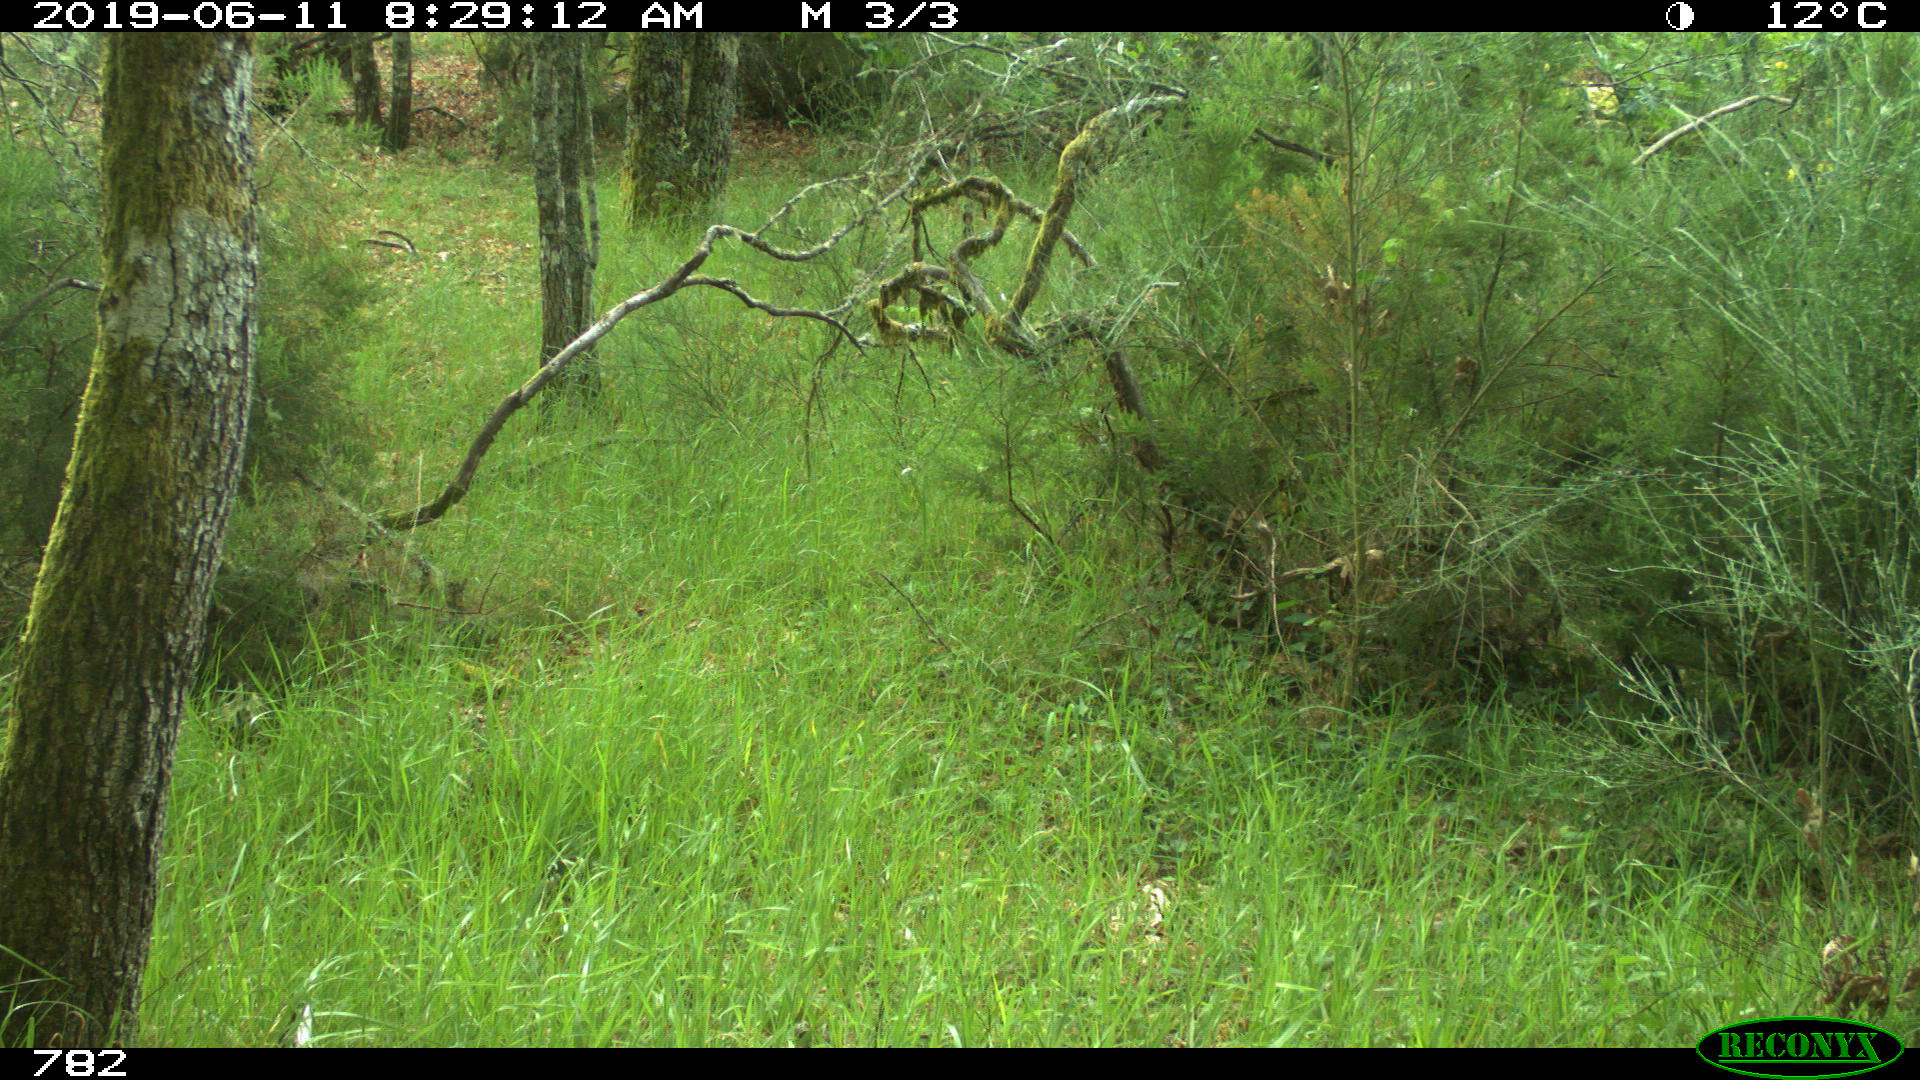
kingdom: Animalia
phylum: Chordata
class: Mammalia
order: Artiodactyla
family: Cervidae
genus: Capreolus
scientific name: Capreolus capreolus
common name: Western roe deer
